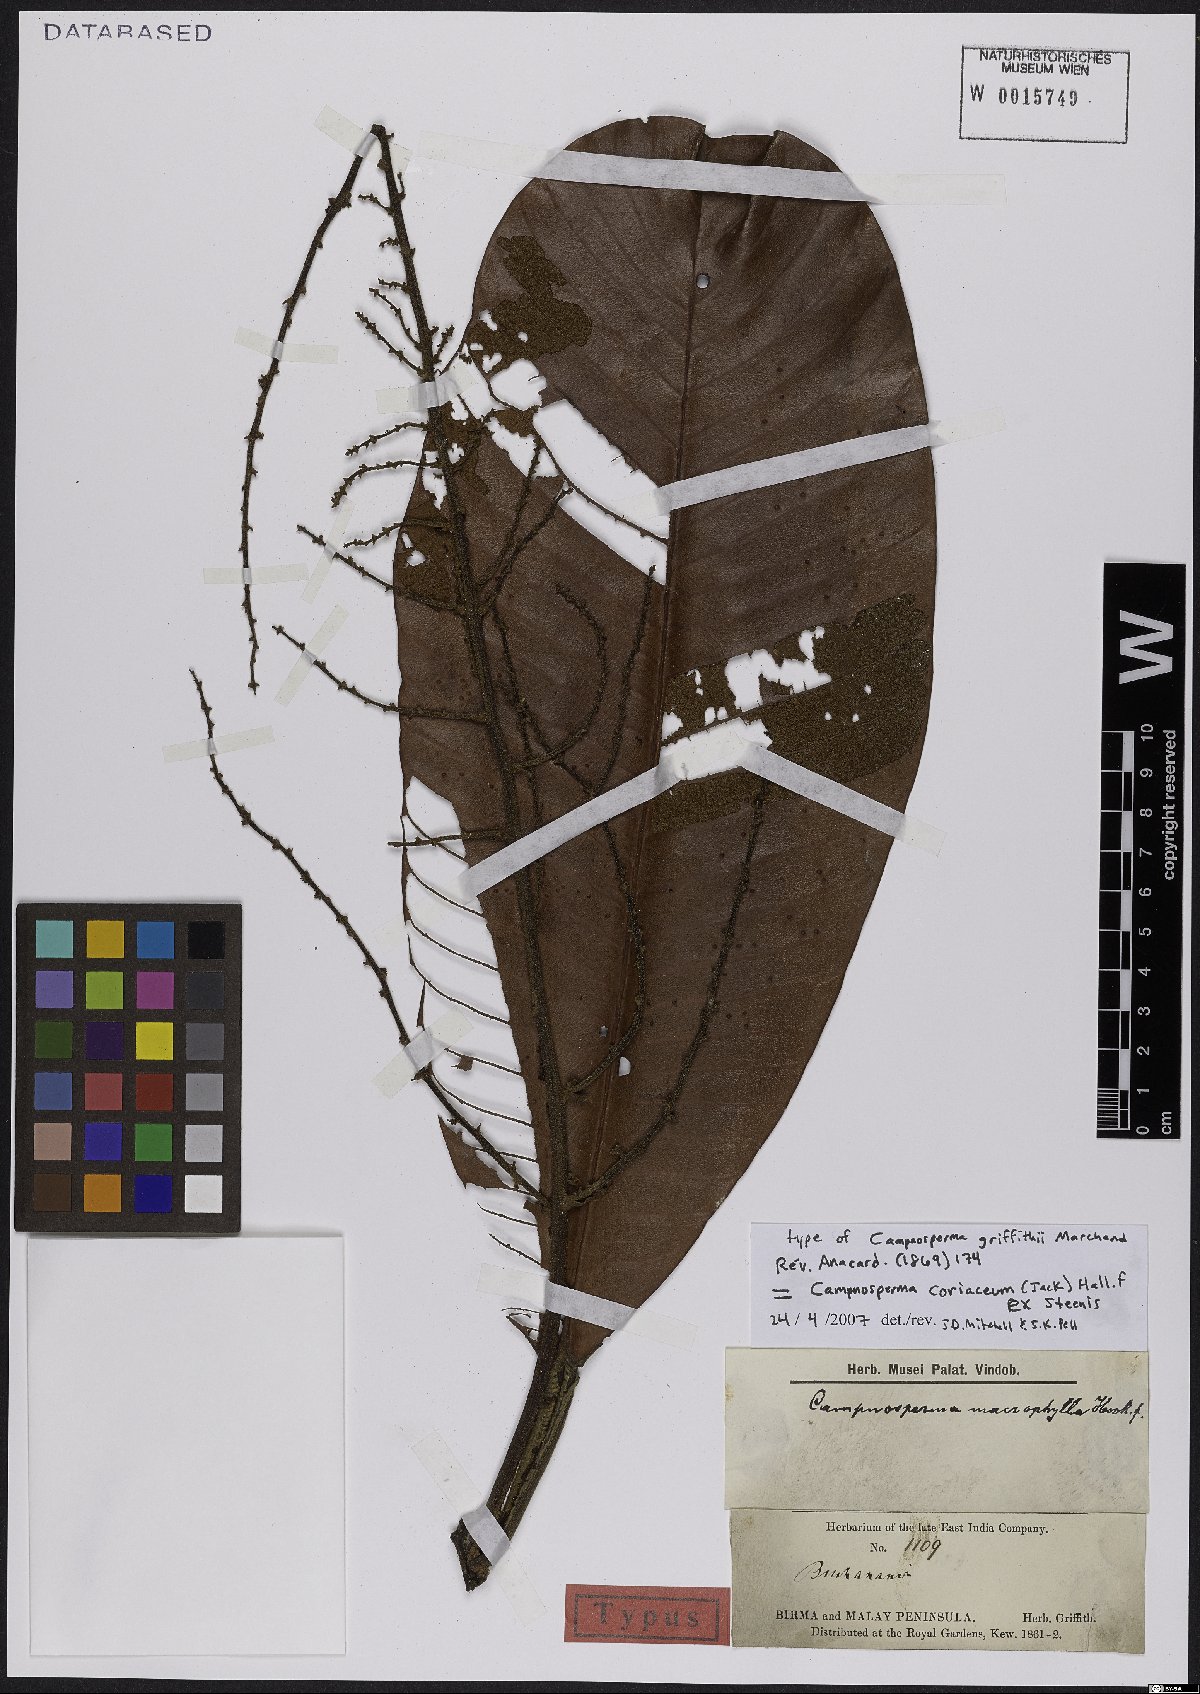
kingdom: Plantae
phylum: Tracheophyta
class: Magnoliopsida
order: Sapindales
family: Anacardiaceae
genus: Campnosperma
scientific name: Campnosperma coriaceum
